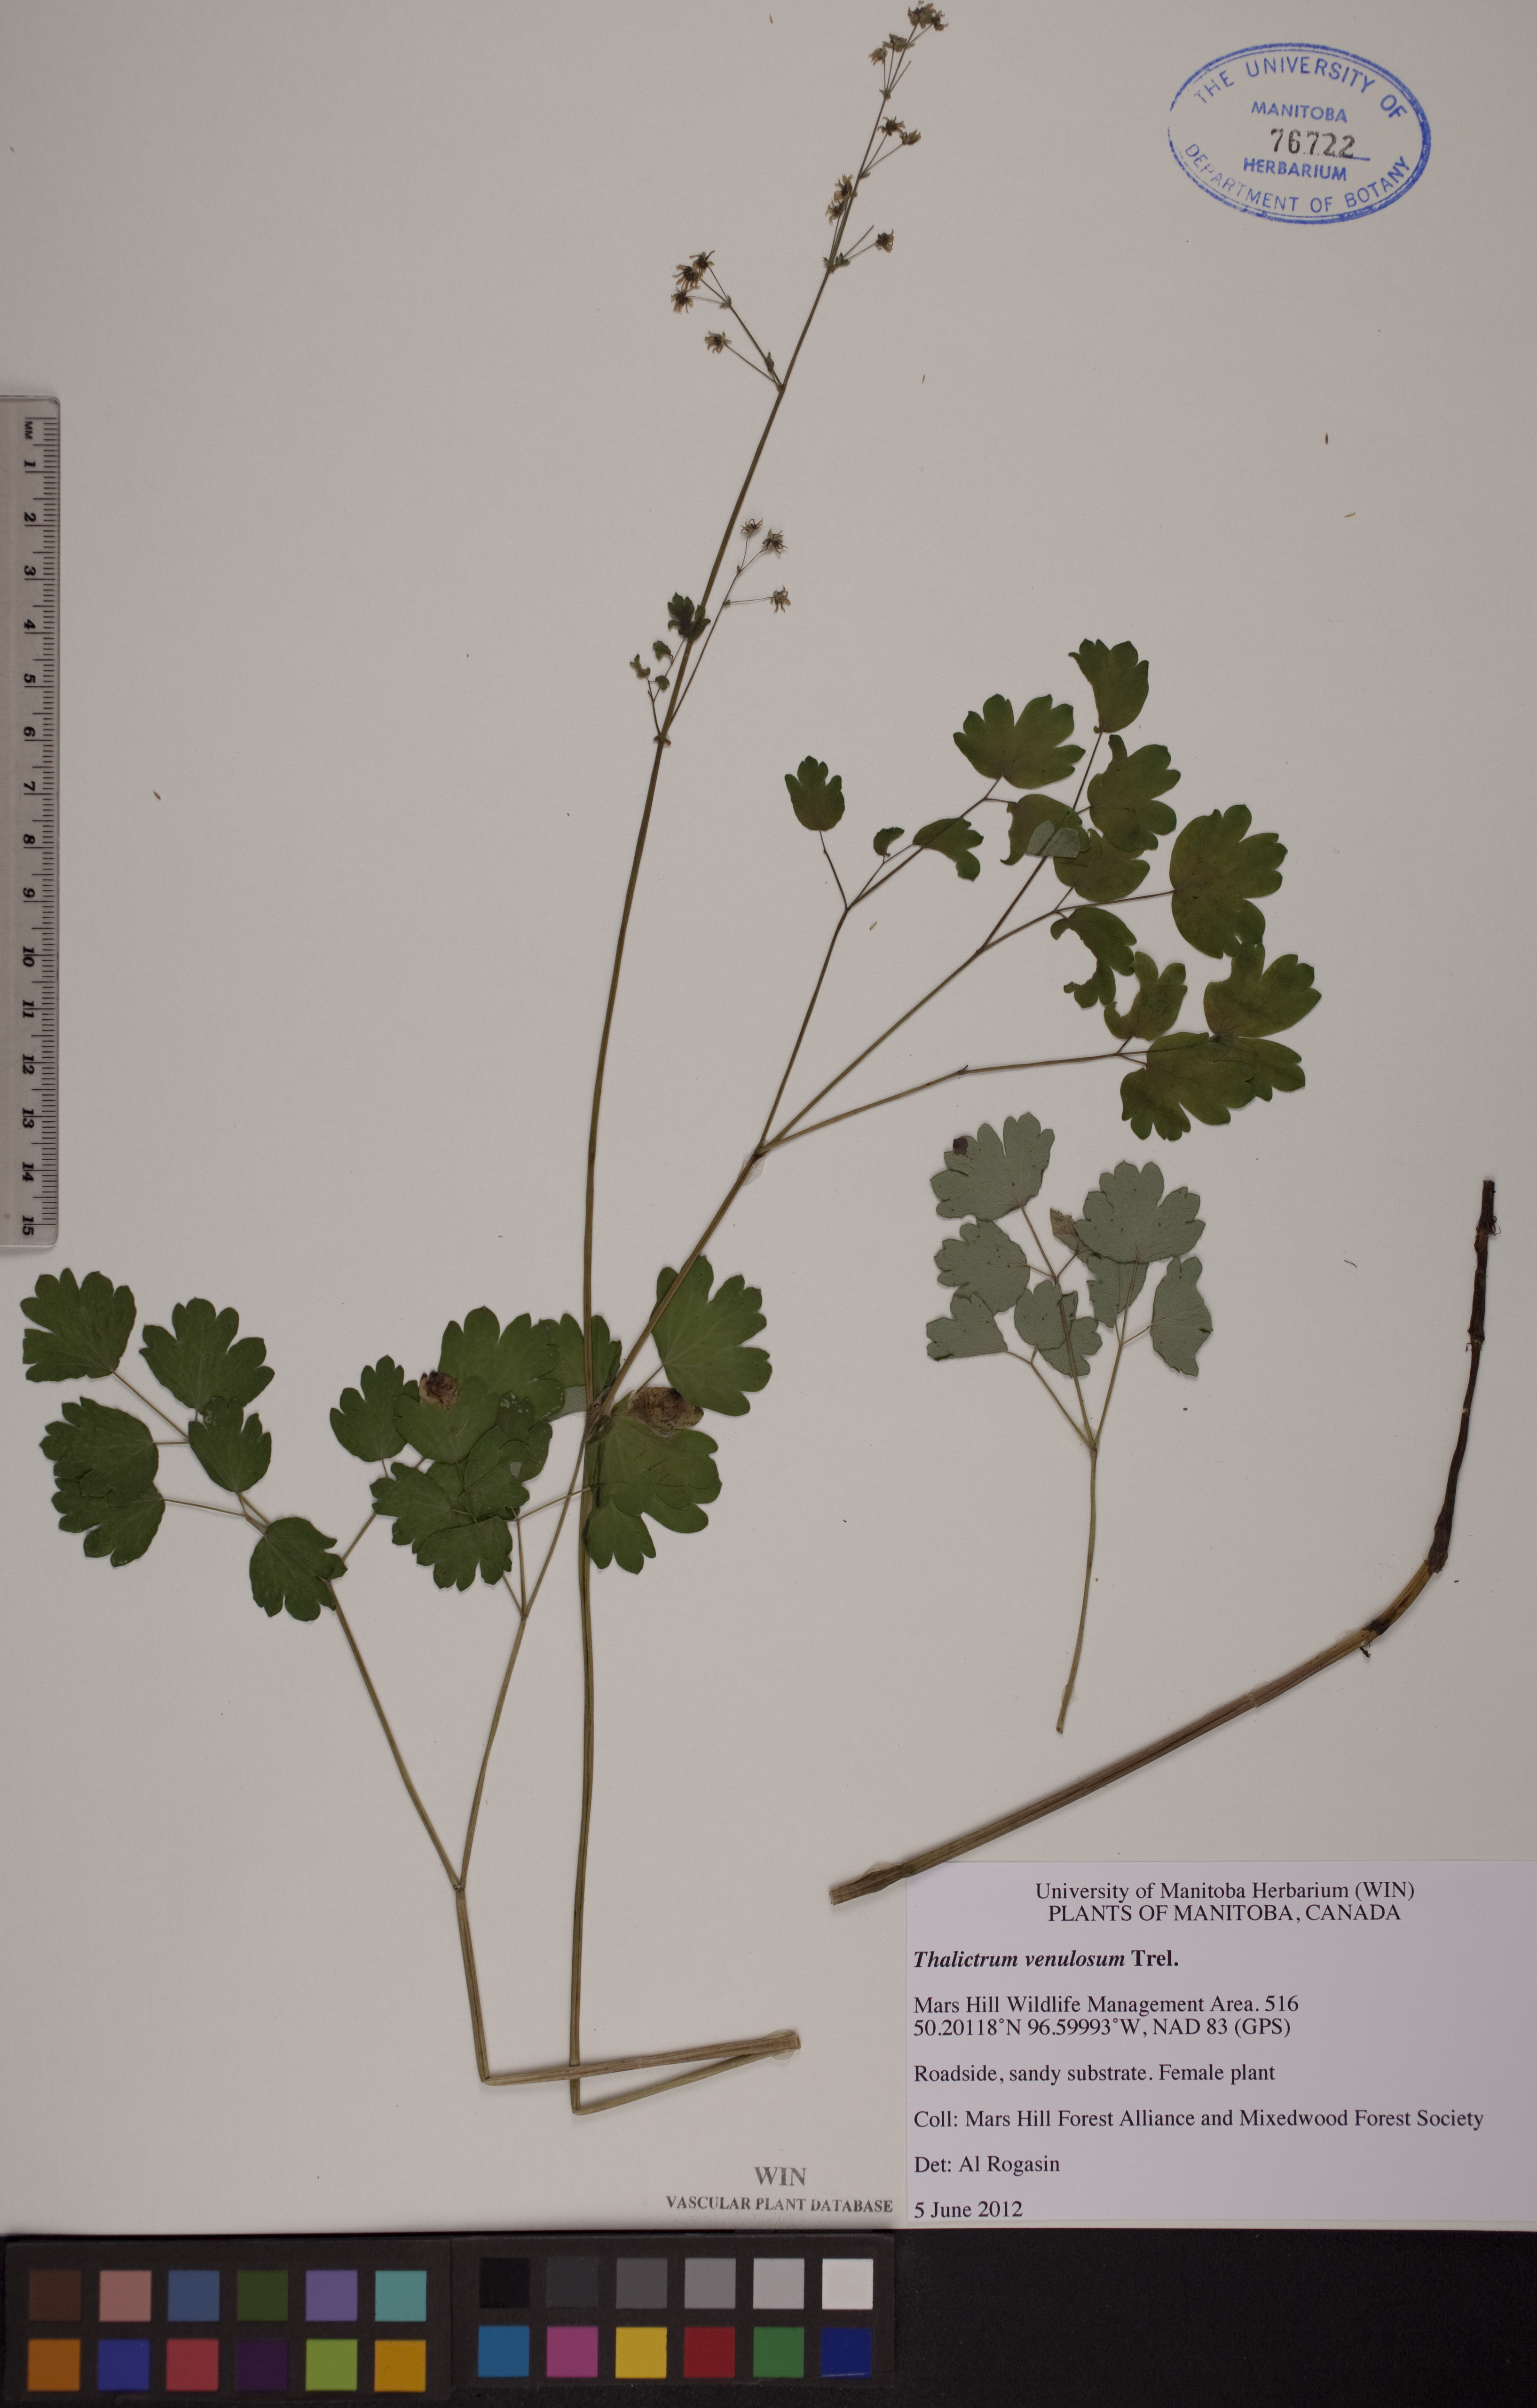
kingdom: Plantae
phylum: Tracheophyta
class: Magnoliopsida
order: Ranunculales
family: Ranunculaceae
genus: Thalictrum
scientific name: Thalictrum venulosum
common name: Early meadow-rue
